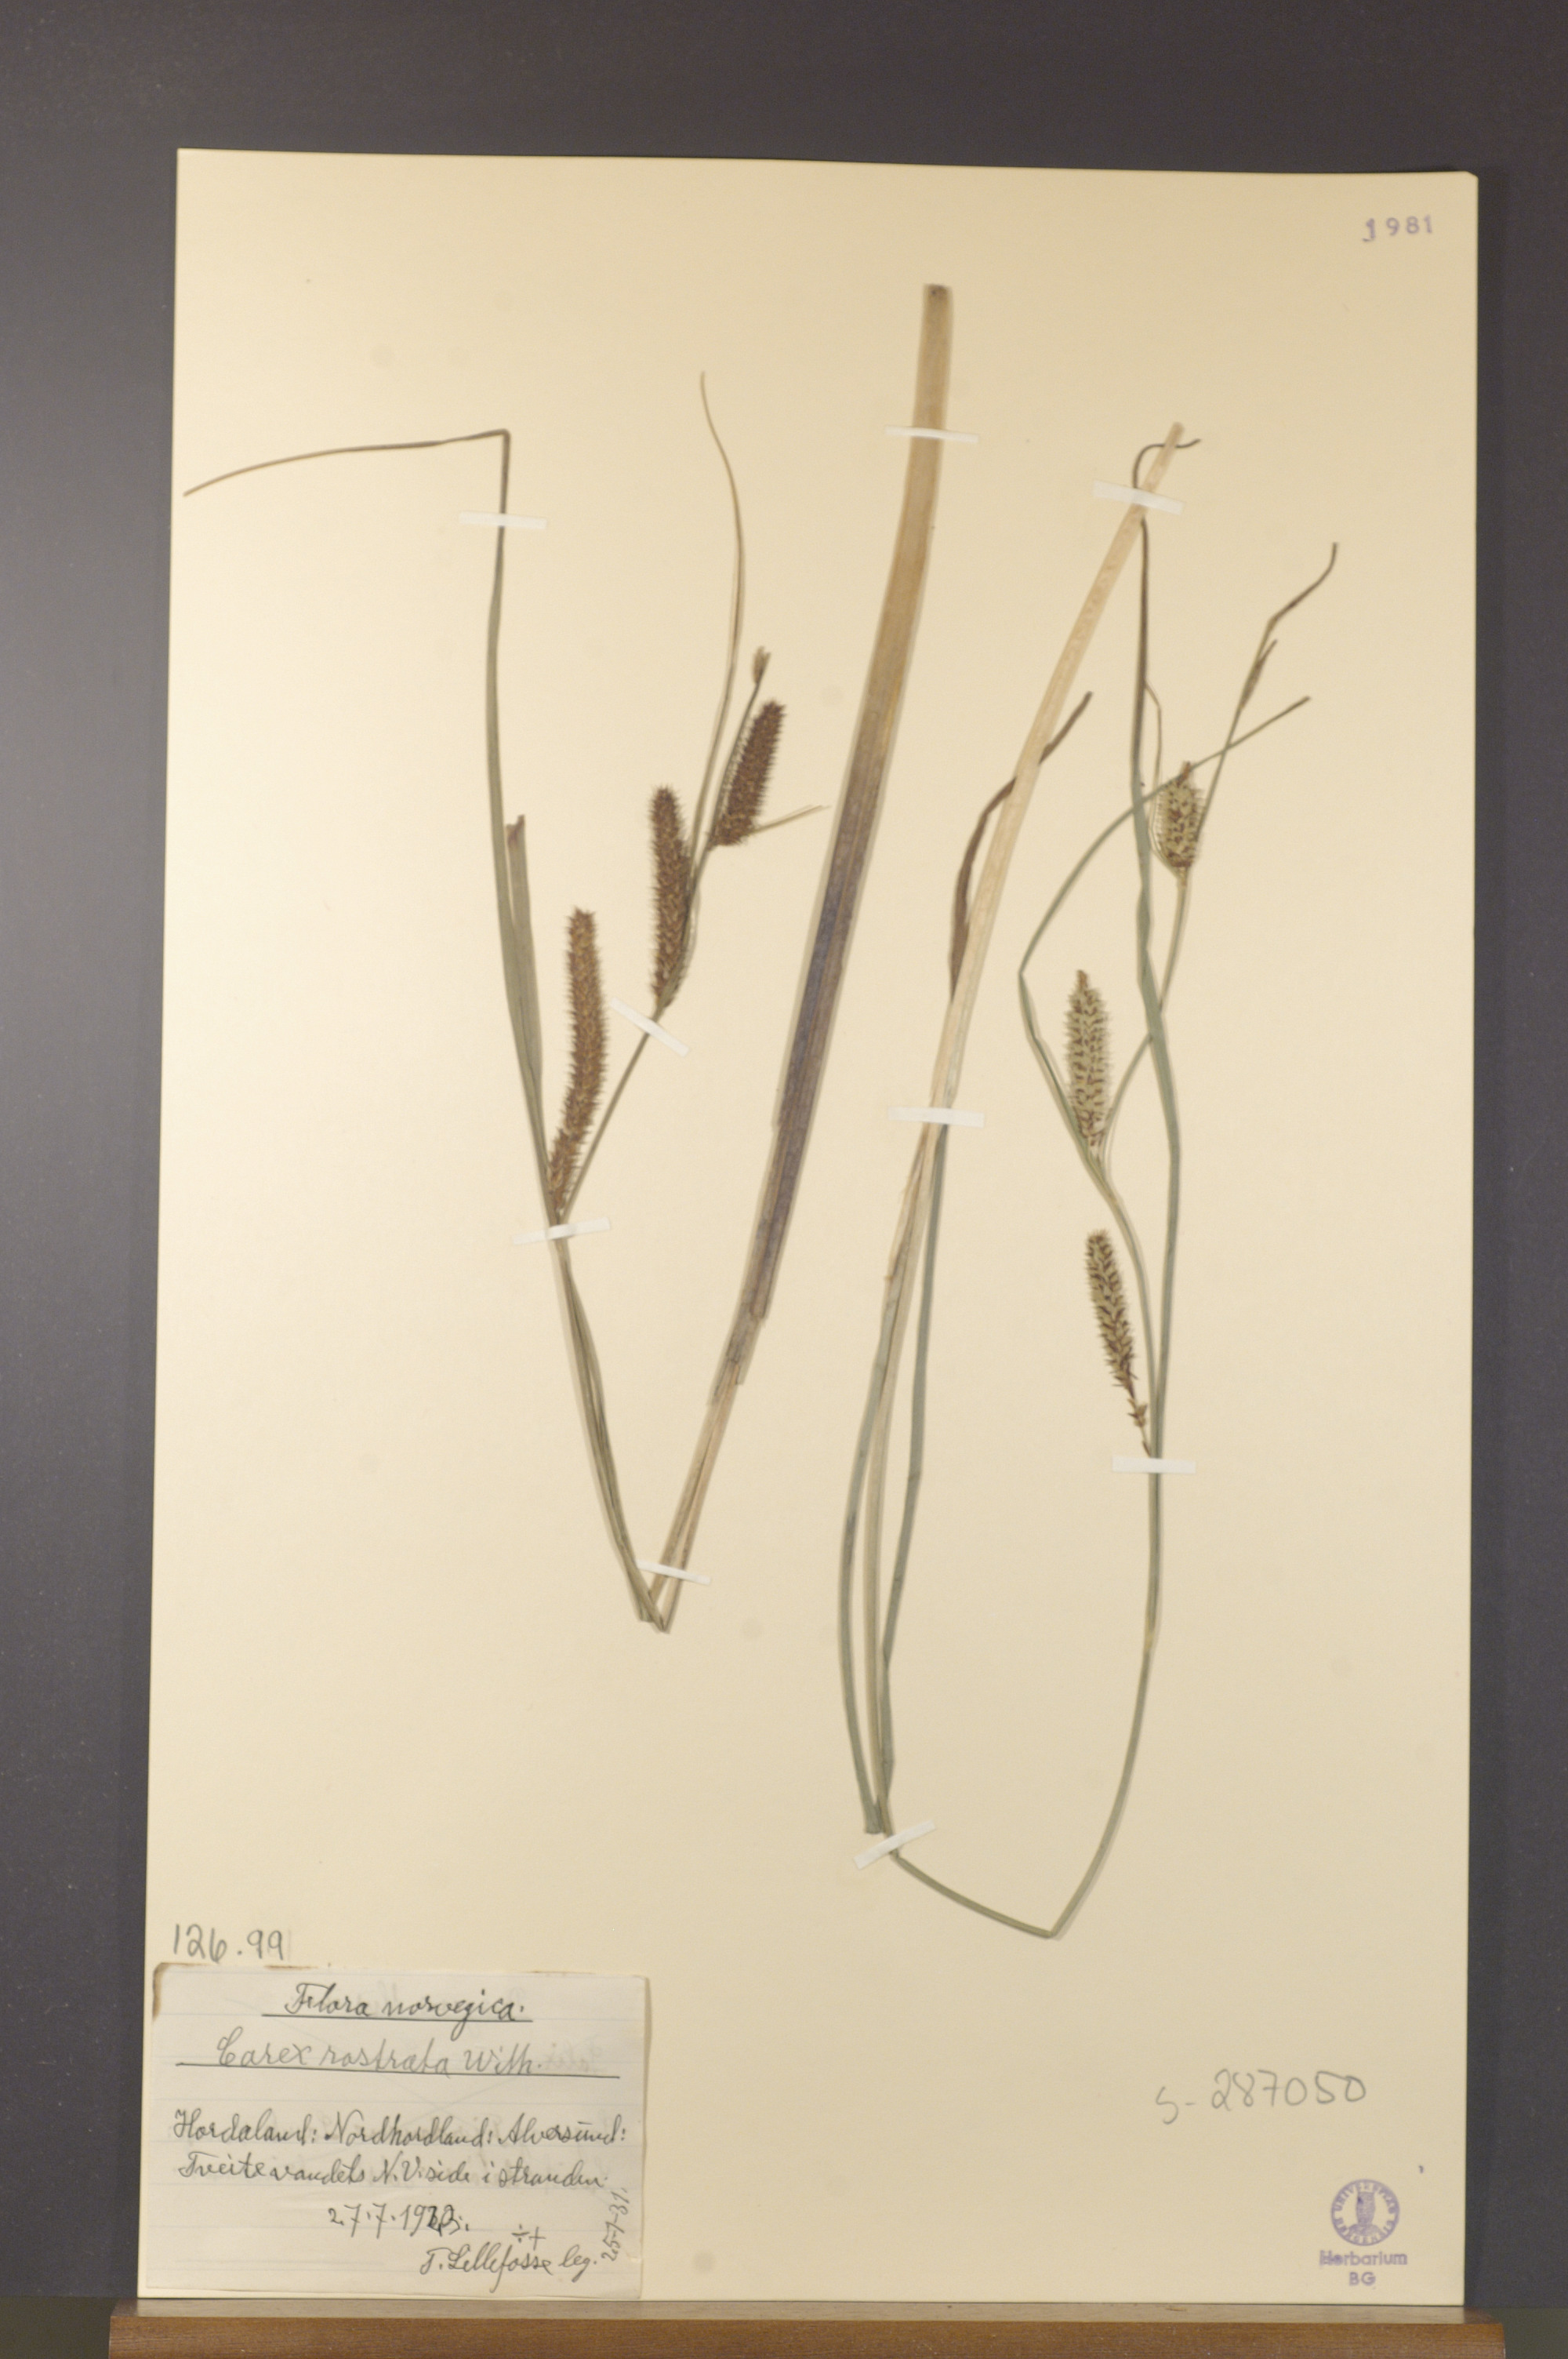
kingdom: Plantae
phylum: Tracheophyta
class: Liliopsida
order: Poales
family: Cyperaceae
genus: Carex
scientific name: Carex rostrata
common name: Bottle sedge
